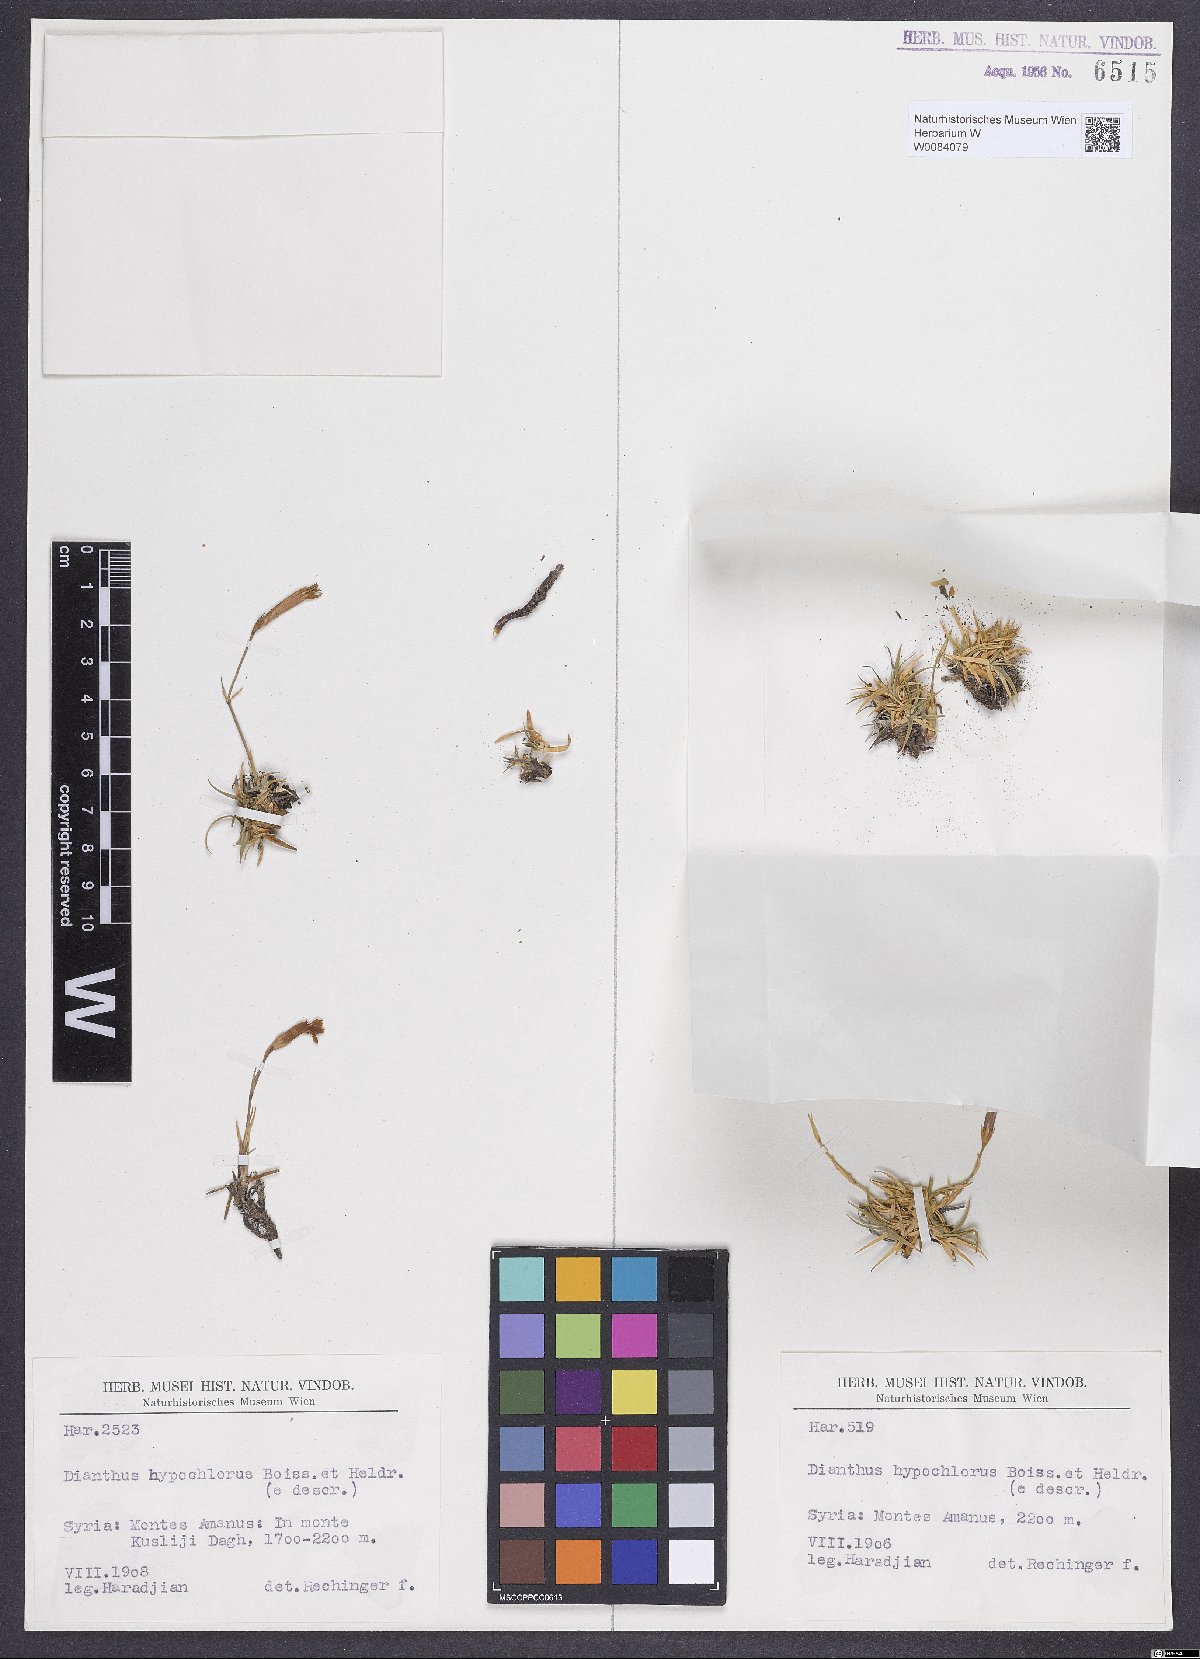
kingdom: Plantae
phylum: Tracheophyta
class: Magnoliopsida
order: Caryophyllales
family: Caryophyllaceae
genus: Dianthus
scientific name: Dianthus zonatus
